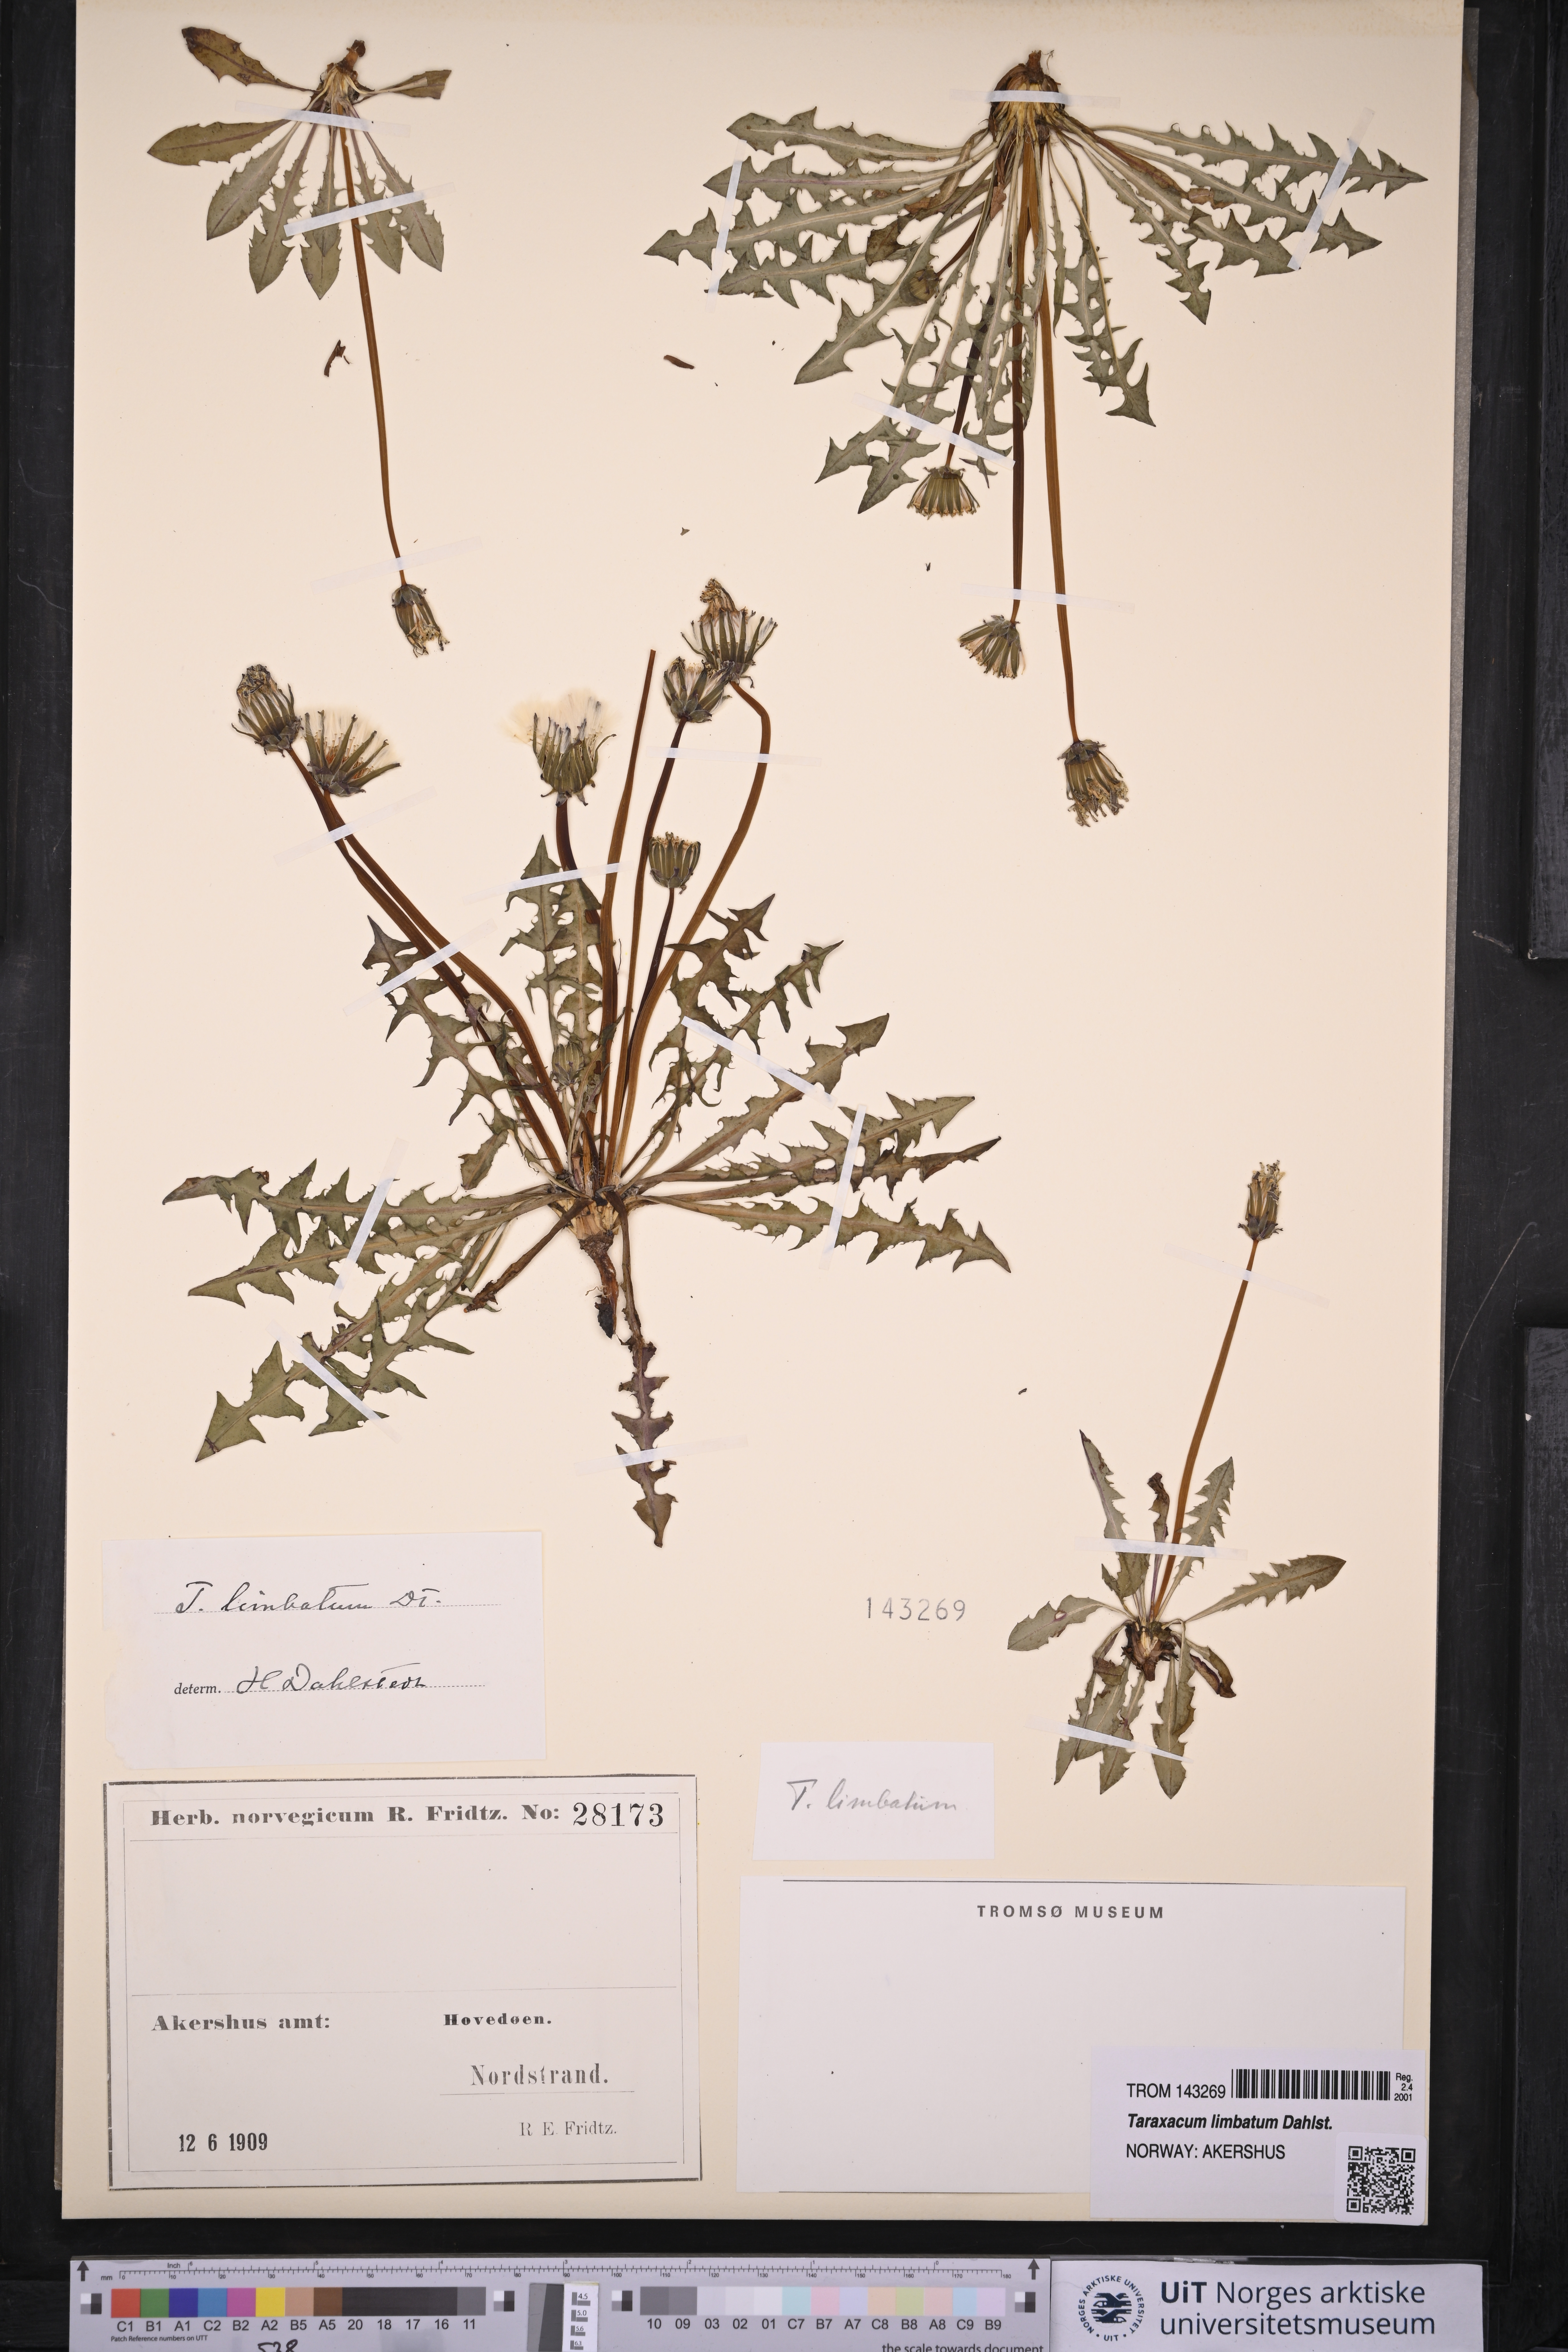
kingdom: Plantae
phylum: Tracheophyta
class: Magnoliopsida
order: Asterales
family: Asteraceae
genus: Taraxacum
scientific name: Taraxacum limbatum
